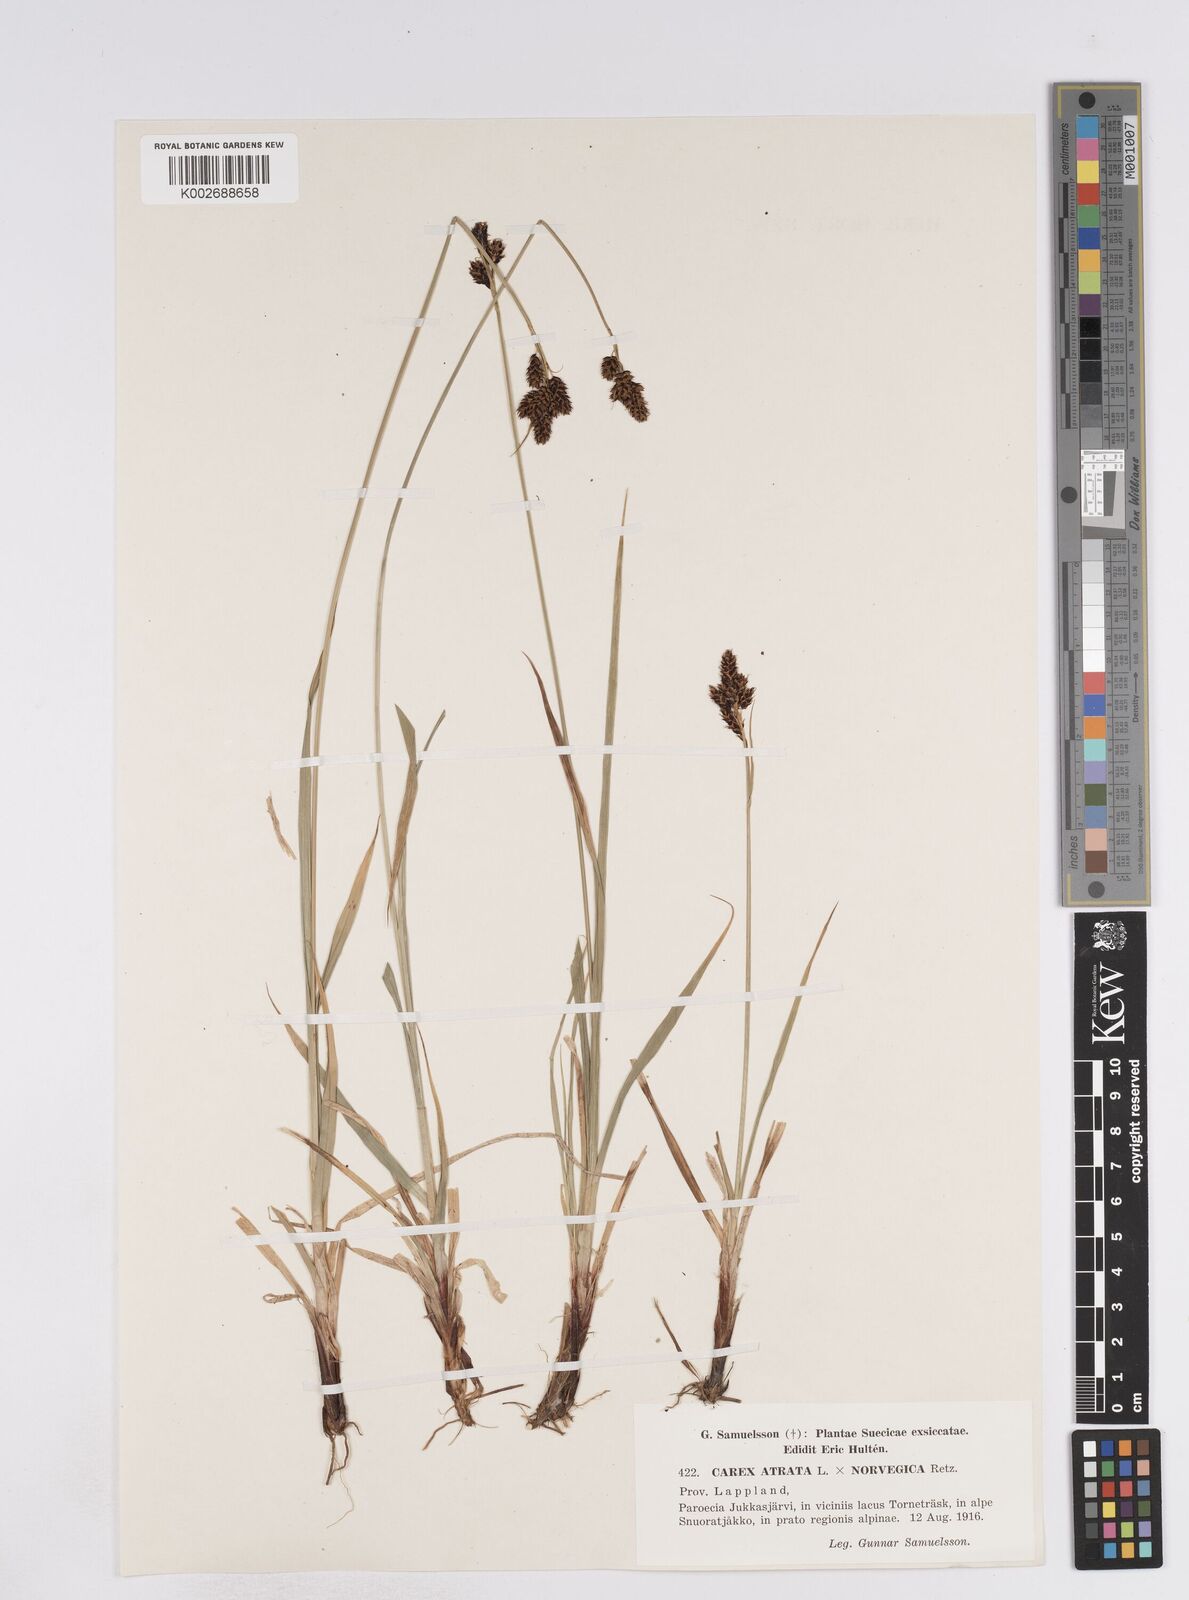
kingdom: Plantae
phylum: Tracheophyta
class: Liliopsida
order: Poales
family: Cyperaceae
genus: Carex
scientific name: Carex norvegica
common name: Close-headed alpine-sedge
